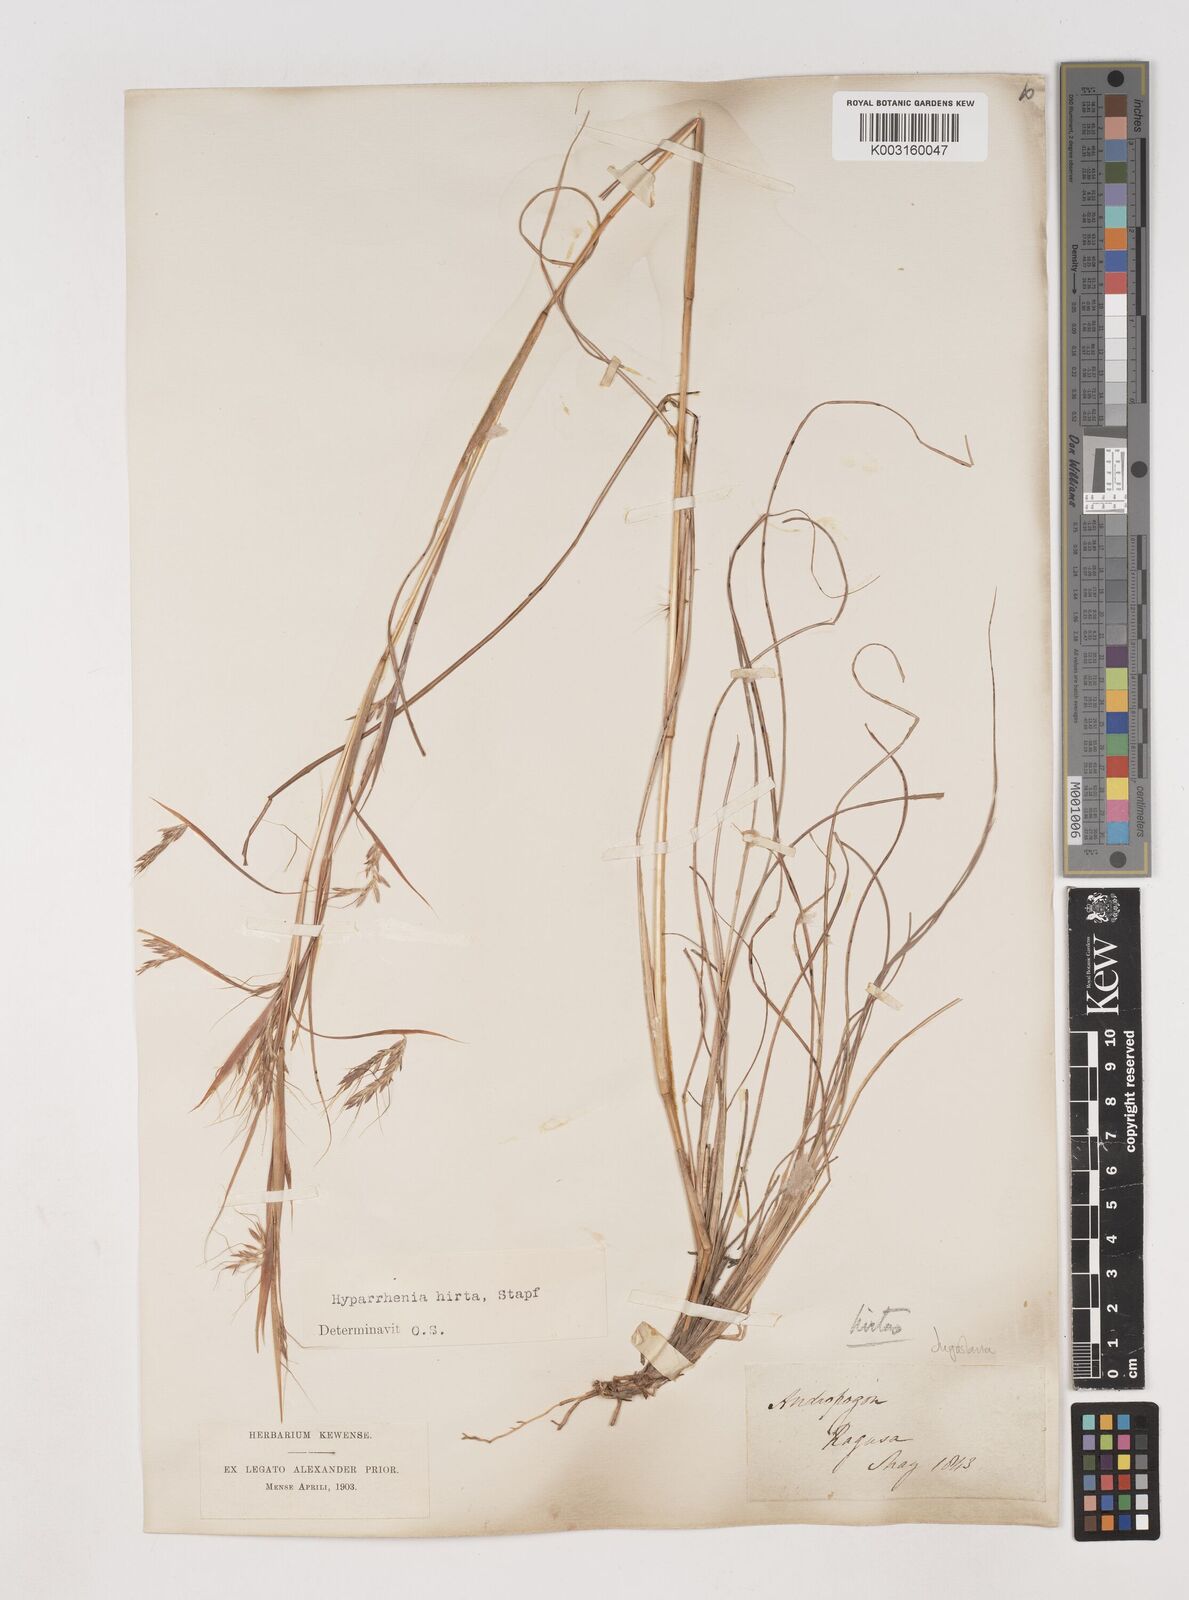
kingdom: Plantae
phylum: Tracheophyta
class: Liliopsida
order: Poales
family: Poaceae
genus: Hyparrhenia
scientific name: Hyparrhenia hirta
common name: Thatching grass
